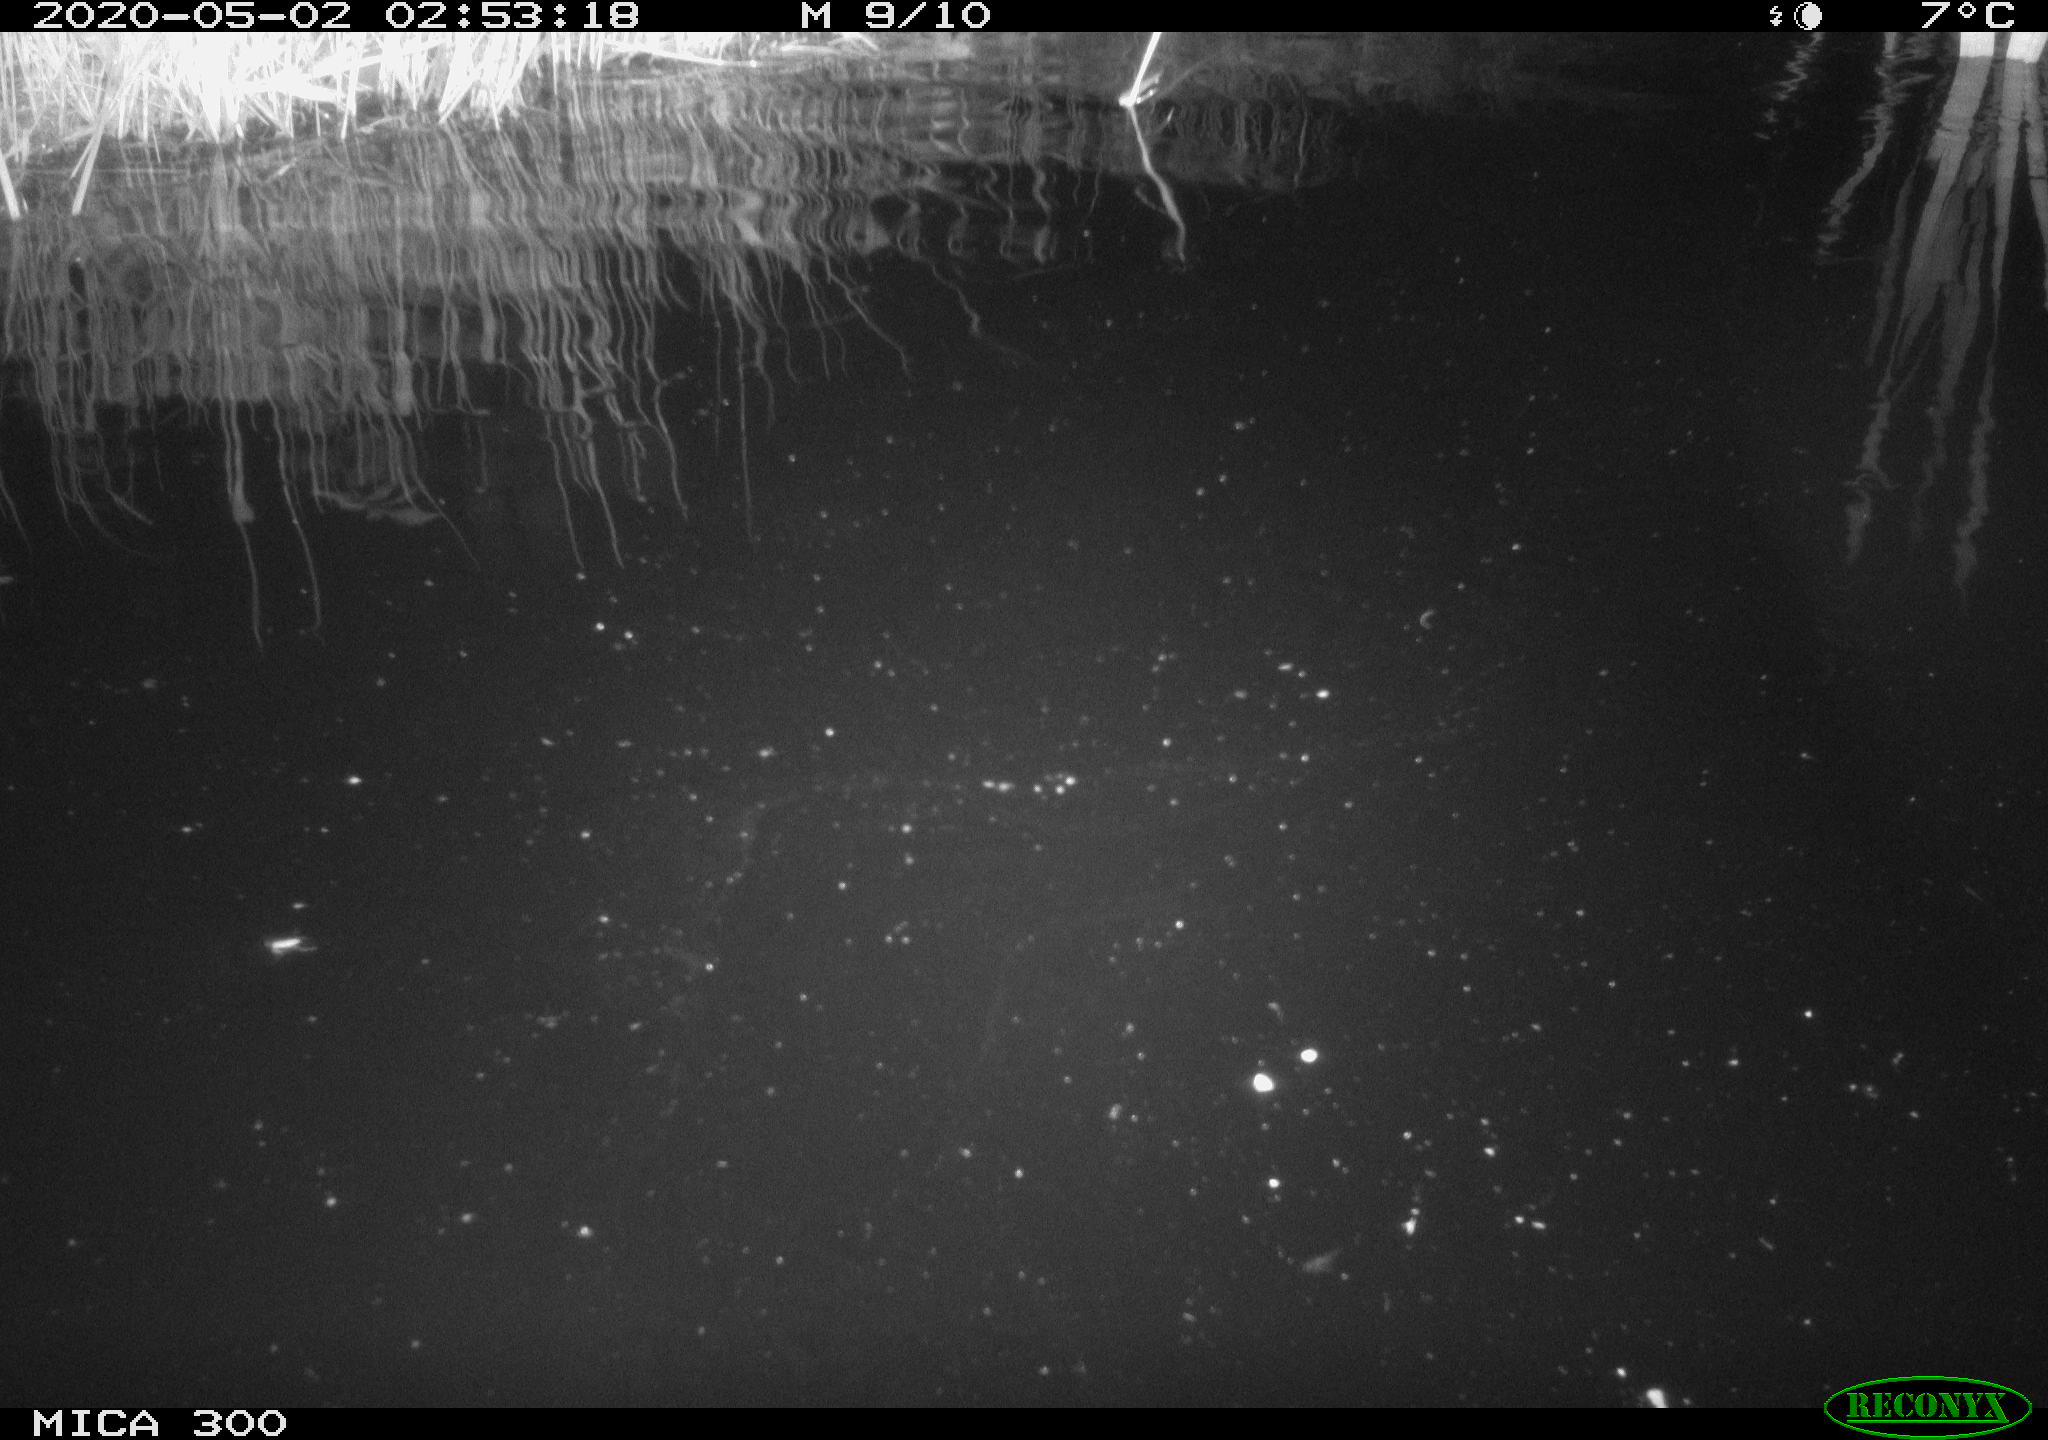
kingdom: Animalia
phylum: Chordata
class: Mammalia
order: Rodentia
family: Castoridae
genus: Castor
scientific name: Castor fiber
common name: Eurasian beaver
